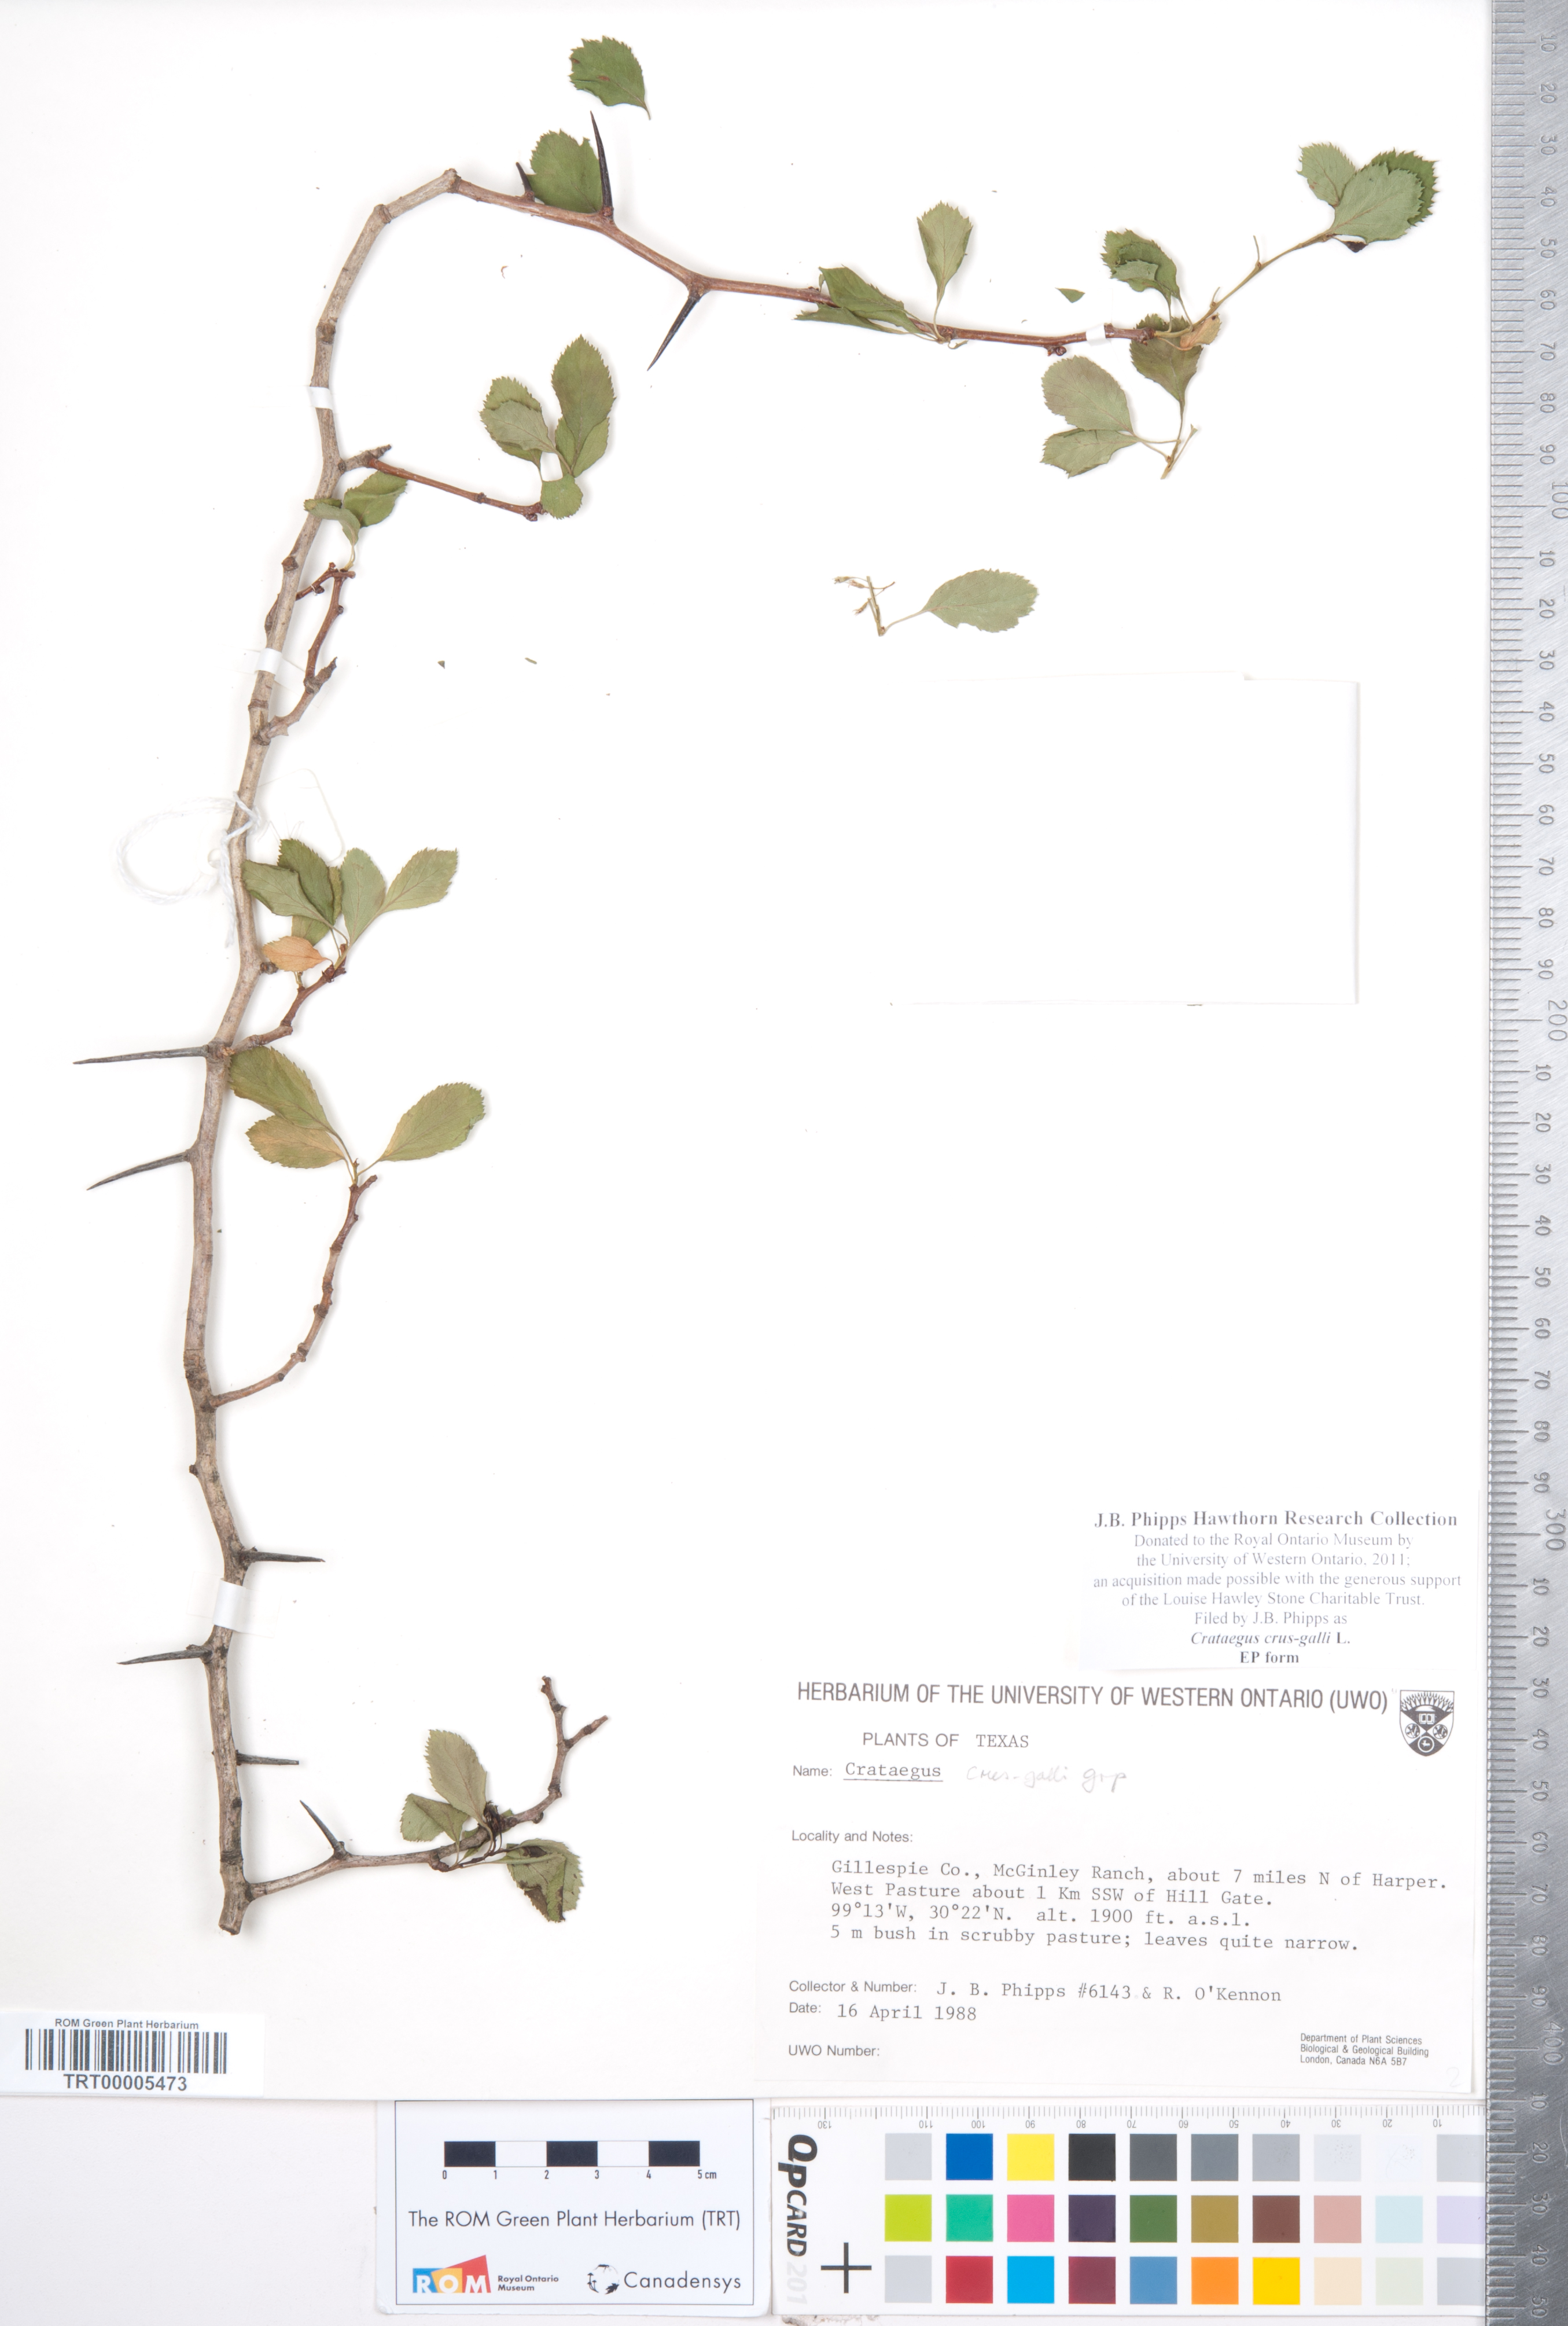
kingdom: Plantae
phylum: Tracheophyta
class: Magnoliopsida
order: Rosales
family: Rosaceae
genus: Crataegus
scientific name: Crataegus crus-galli
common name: Cockspurthorn
